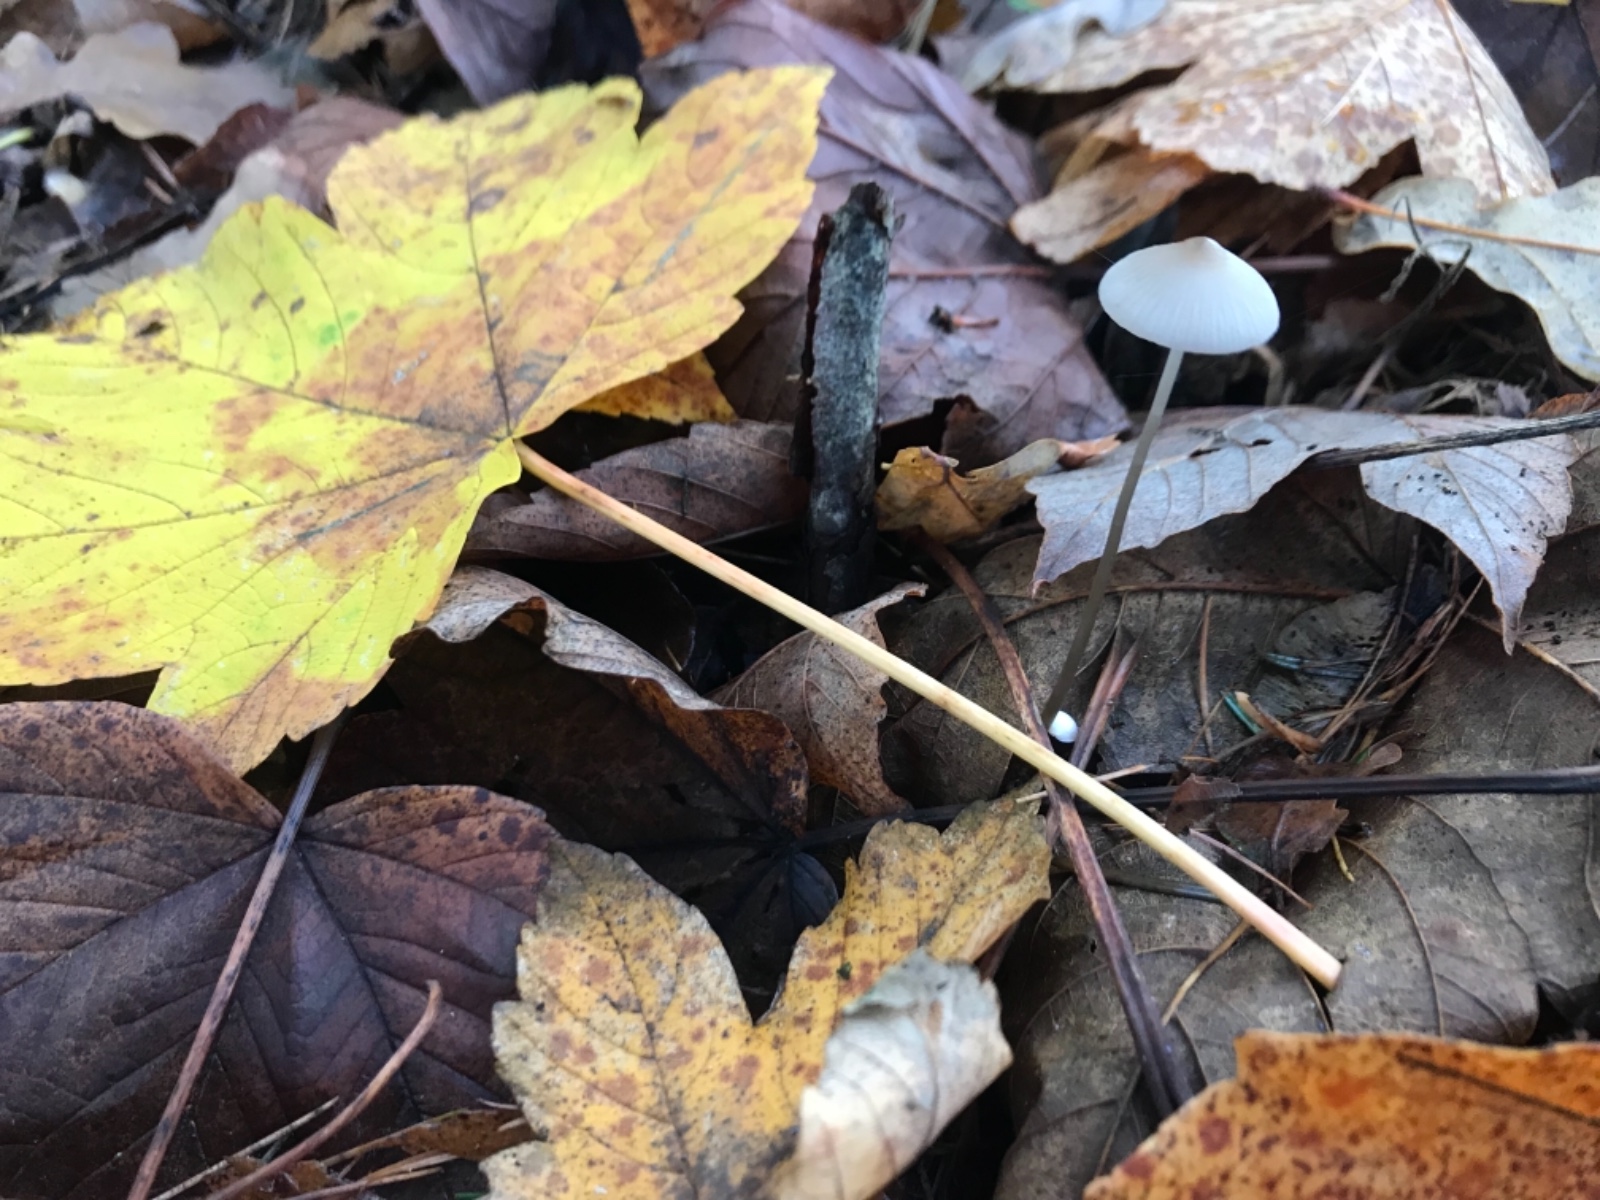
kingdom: Fungi
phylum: Basidiomycota
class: Agaricomycetes
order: Agaricales
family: Mycenaceae
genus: Mycena
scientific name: Mycena vitilis
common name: blankstokket huesvamp
